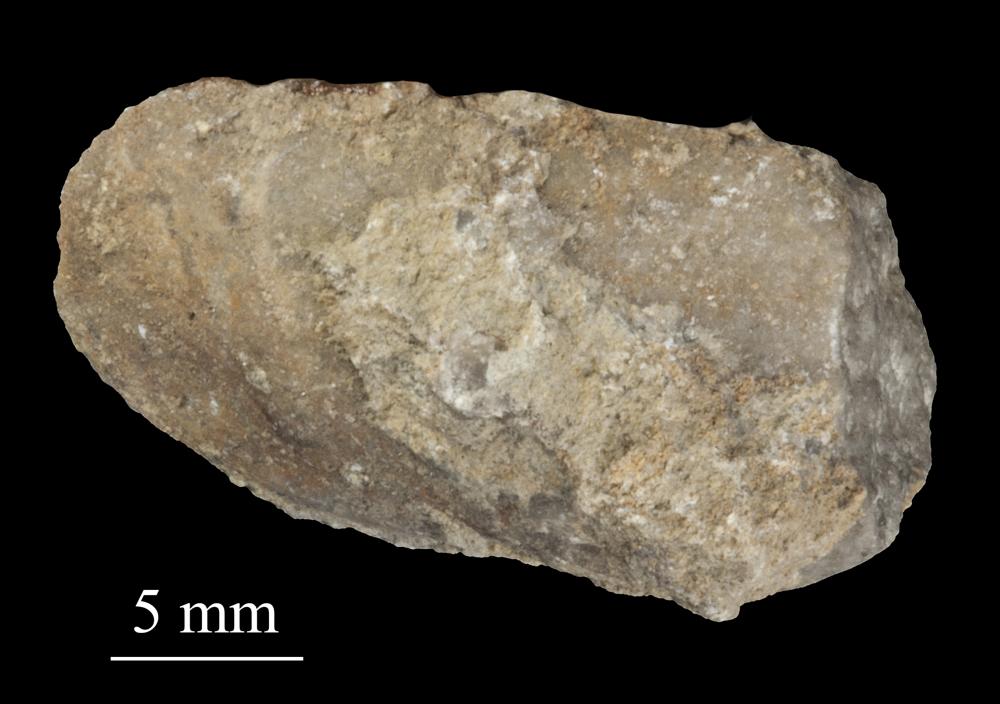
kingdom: Animalia
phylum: Mollusca
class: Bivalvia
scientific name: Bivalvia
